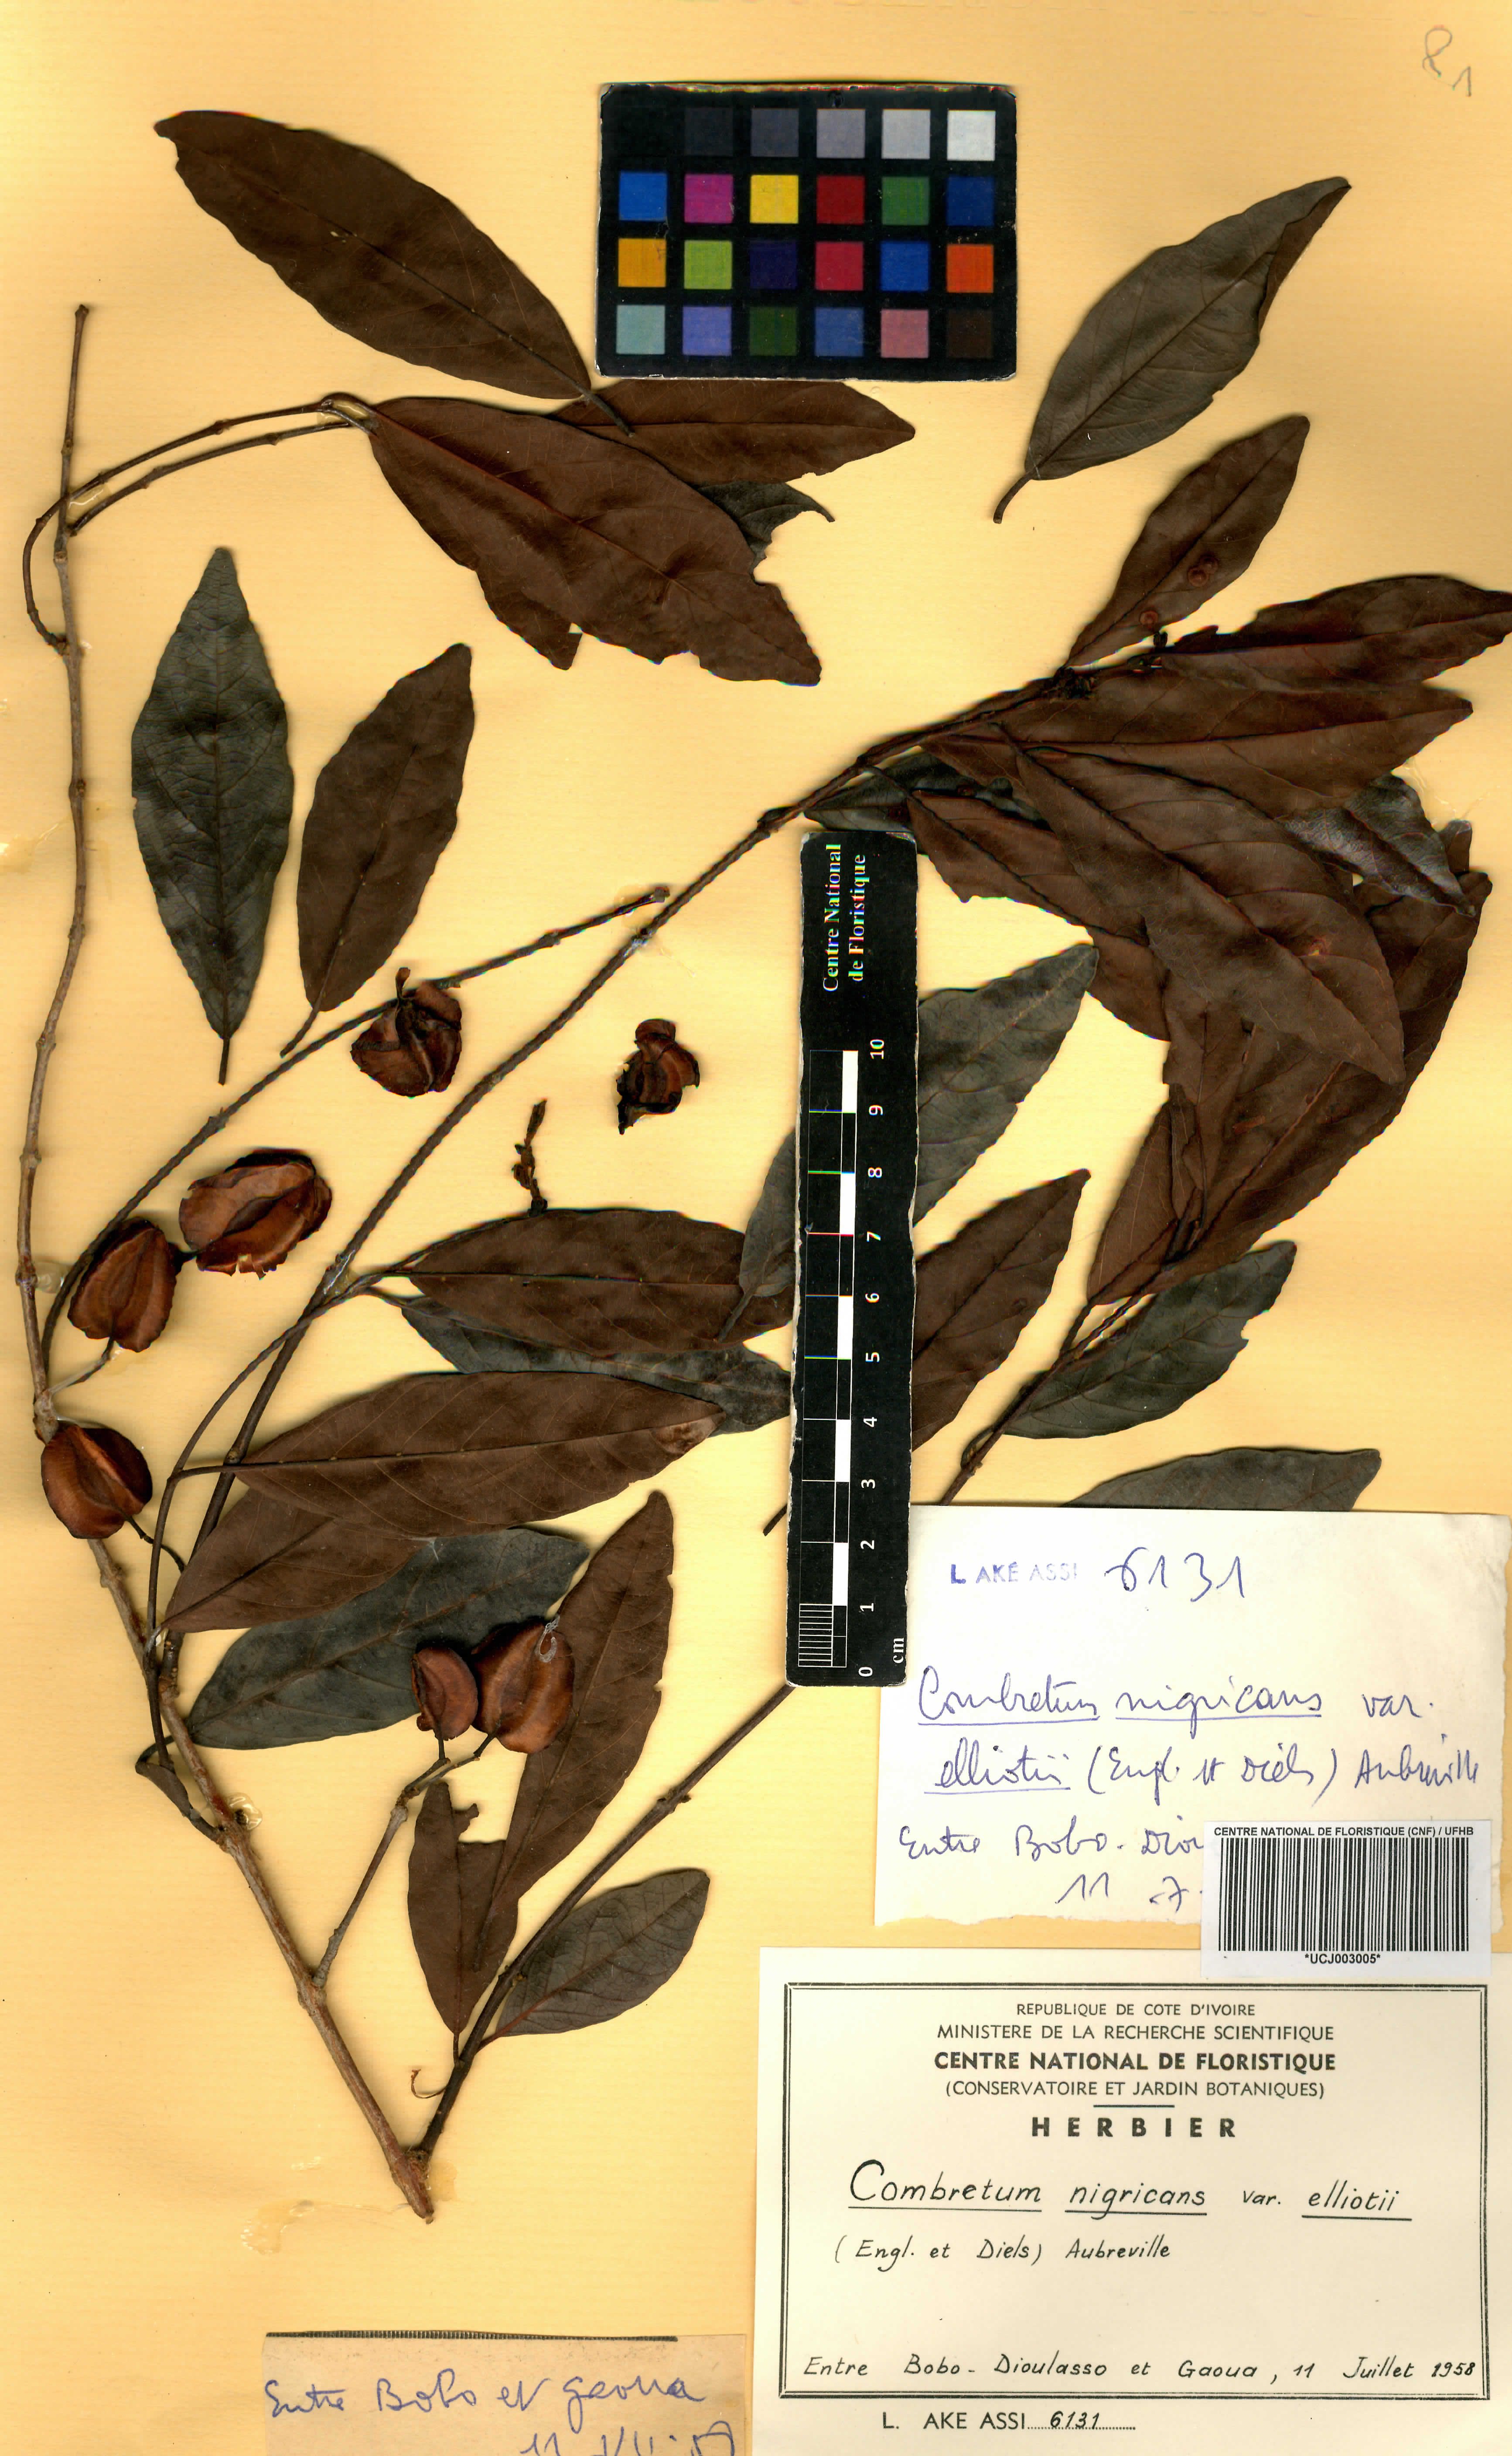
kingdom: Plantae
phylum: Tracheophyta
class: Magnoliopsida
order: Myrtales
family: Combretaceae
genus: Combretum
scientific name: Combretum nigricans
